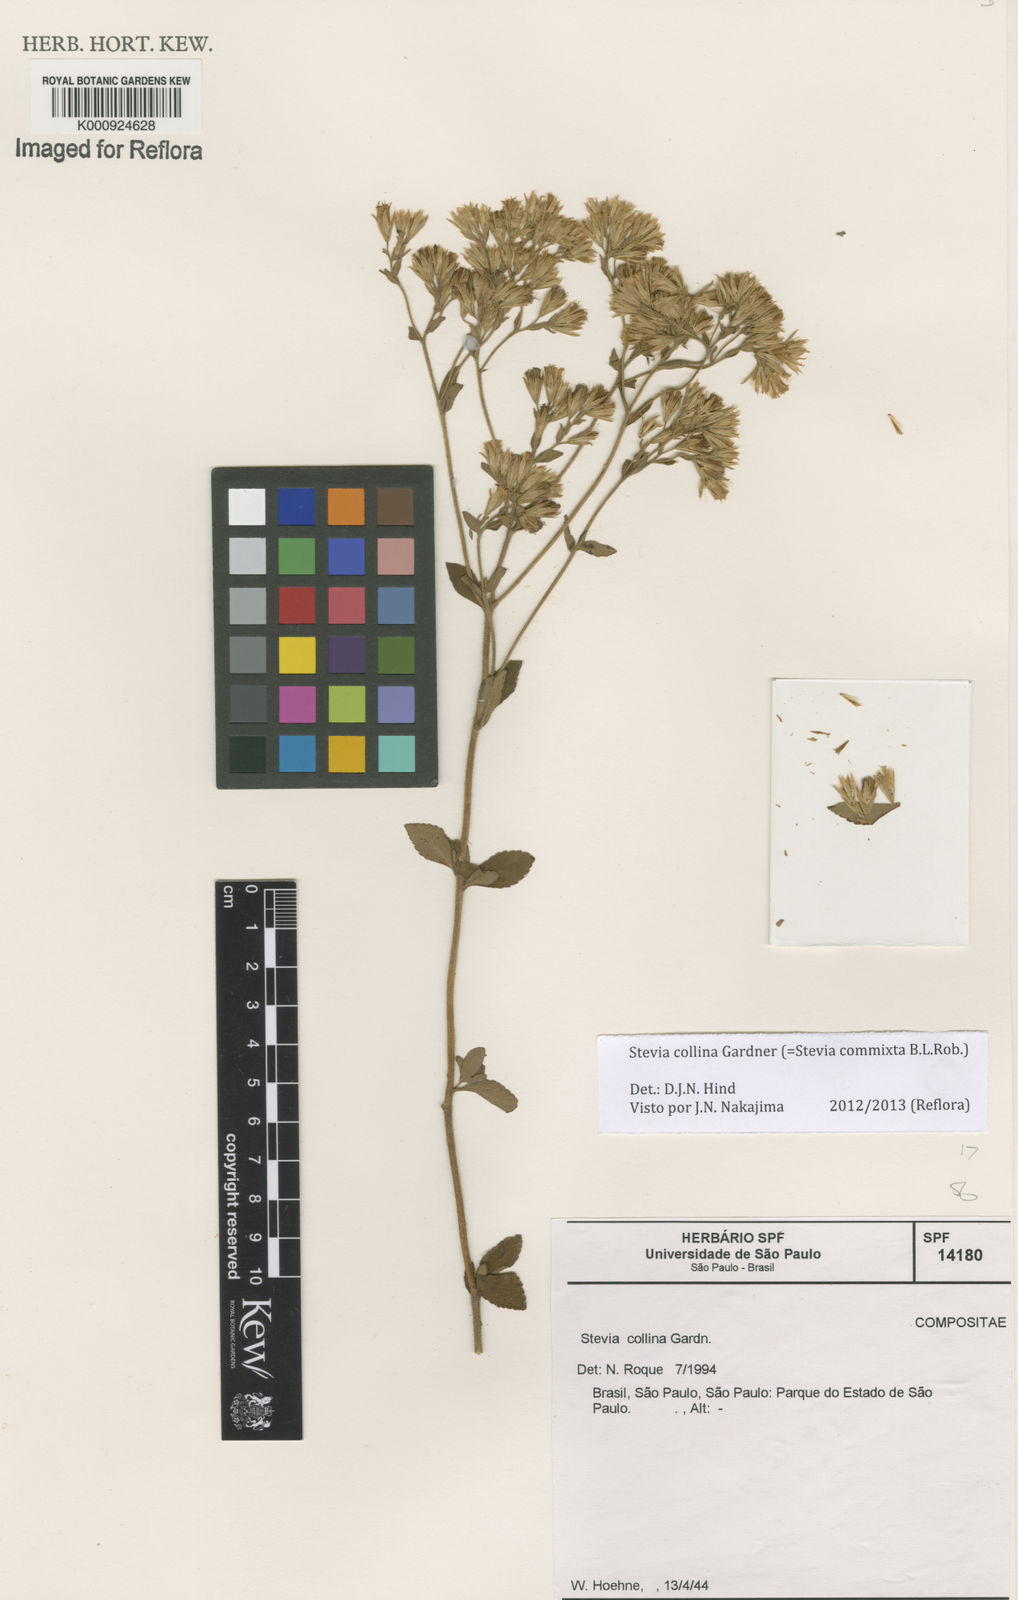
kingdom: Plantae
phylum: Tracheophyta
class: Magnoliopsida
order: Asterales
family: Asteraceae
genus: Stevia
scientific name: Stevia collina
